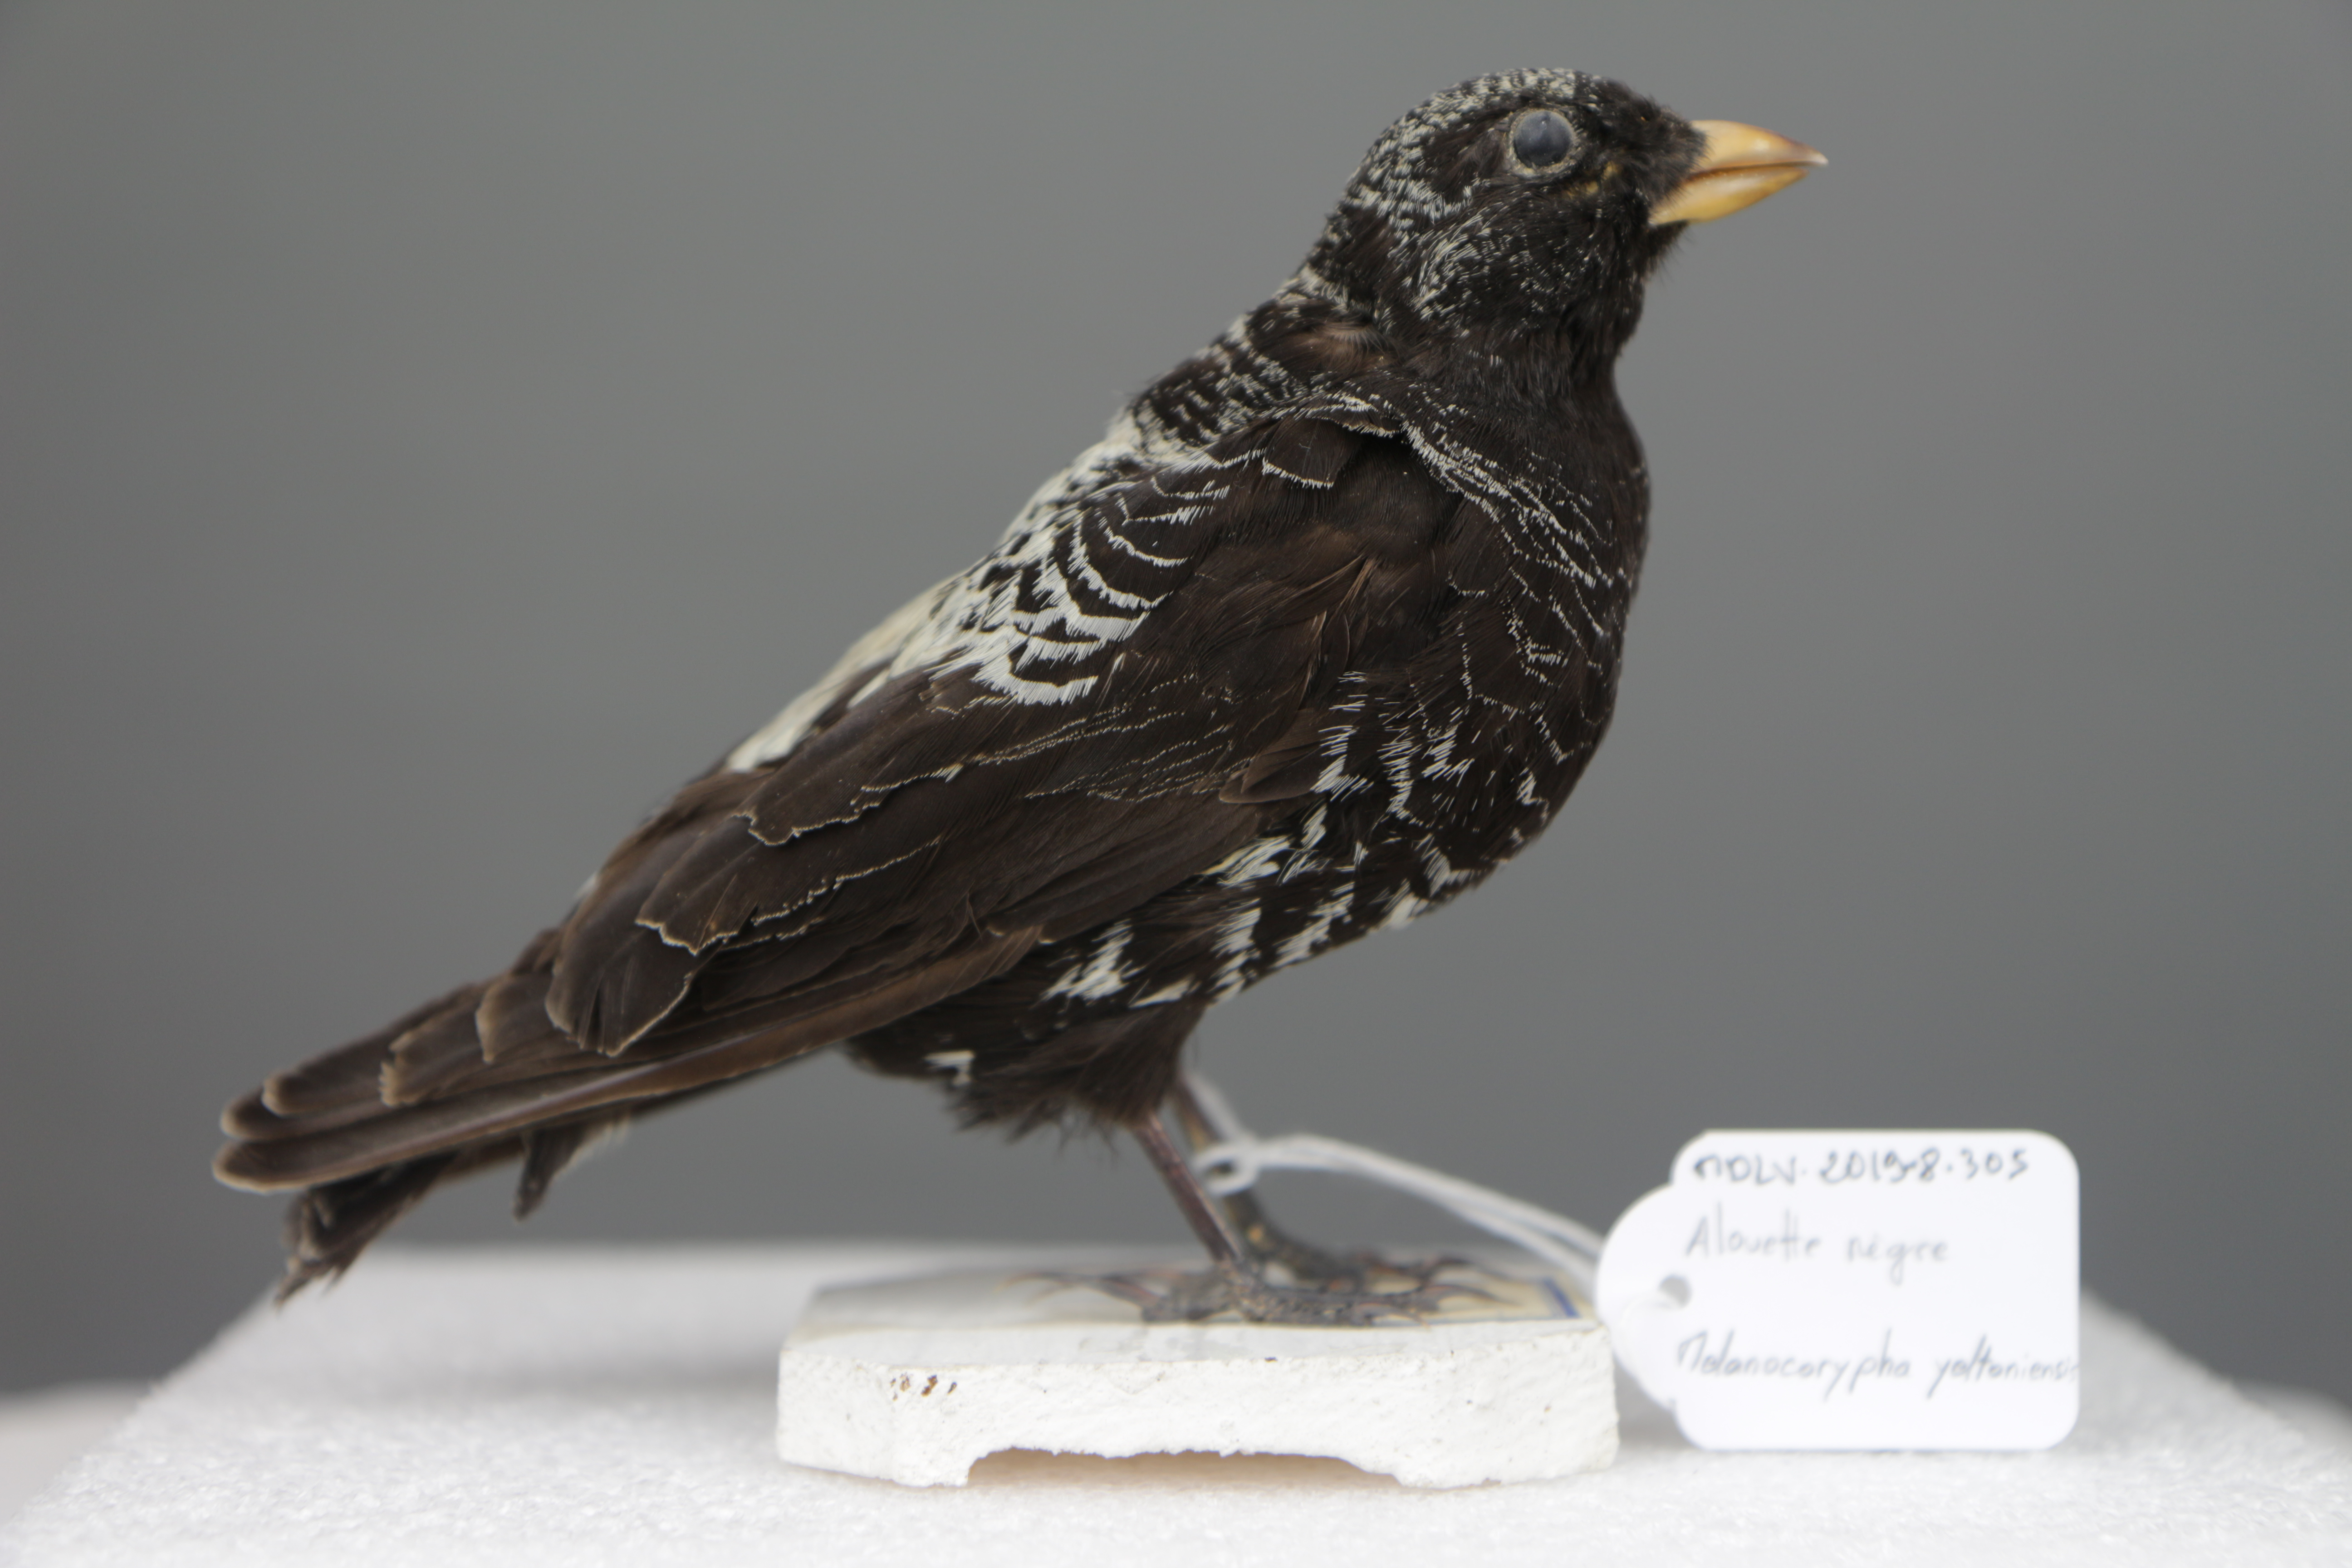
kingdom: Animalia
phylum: Chordata
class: Aves
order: Passeriformes
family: Alaudidae
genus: Melanocorypha
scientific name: Melanocorypha yeltoniensis
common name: Black lark
